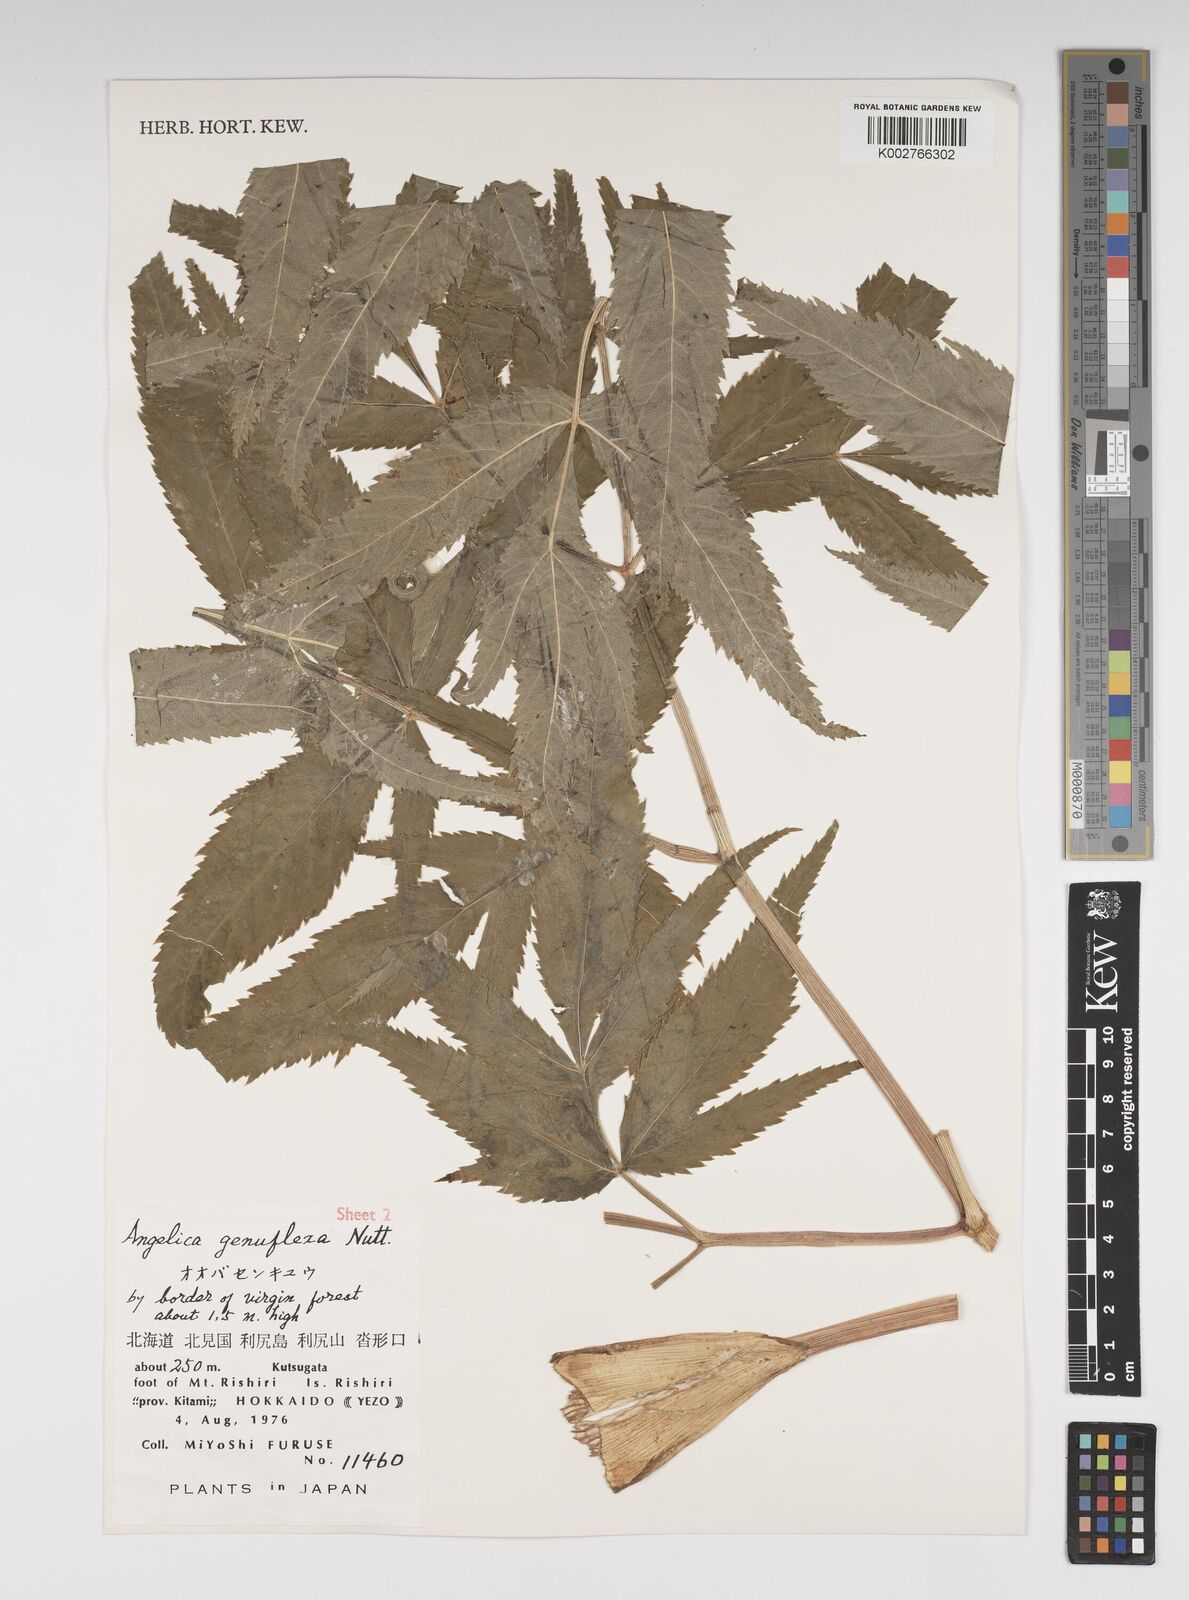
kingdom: Plantae
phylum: Tracheophyta
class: Magnoliopsida
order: Apiales
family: Apiaceae
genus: Angelica
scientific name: Angelica genuflexa
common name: Kneeling angelica
